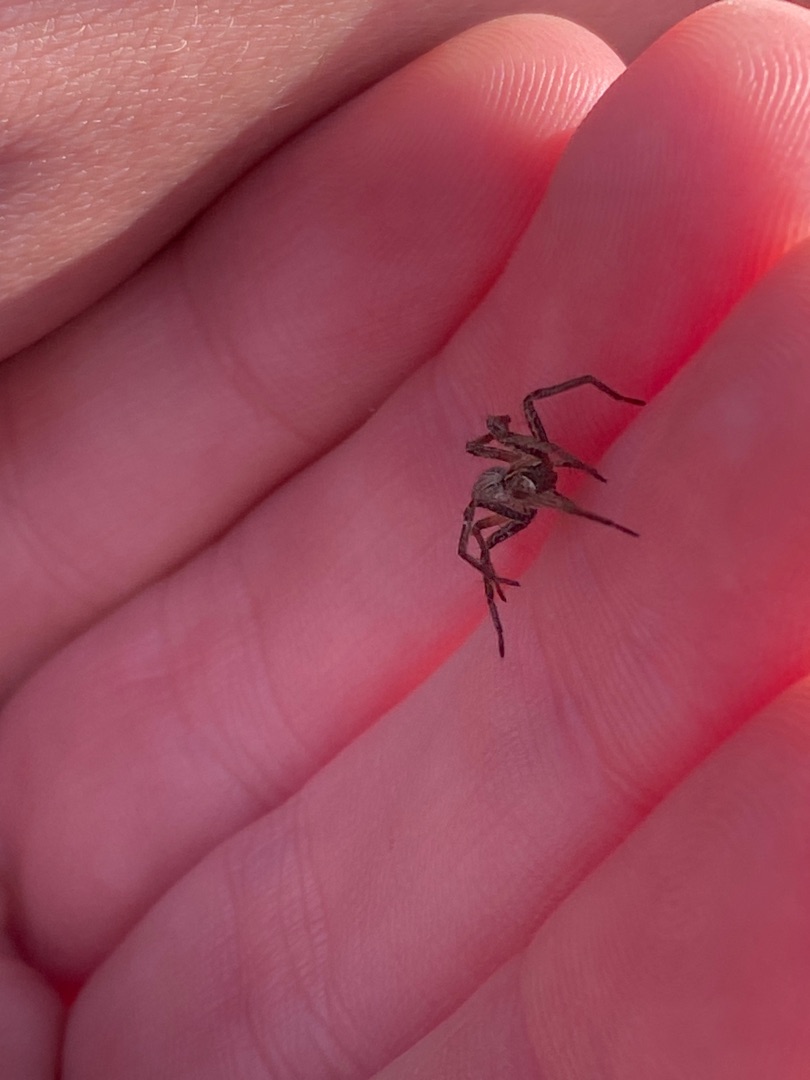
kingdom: Animalia
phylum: Arthropoda
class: Arachnida
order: Araneae
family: Pisauridae
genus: Pisaura
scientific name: Pisaura mirabilis
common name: Almindelig rovedderkop
